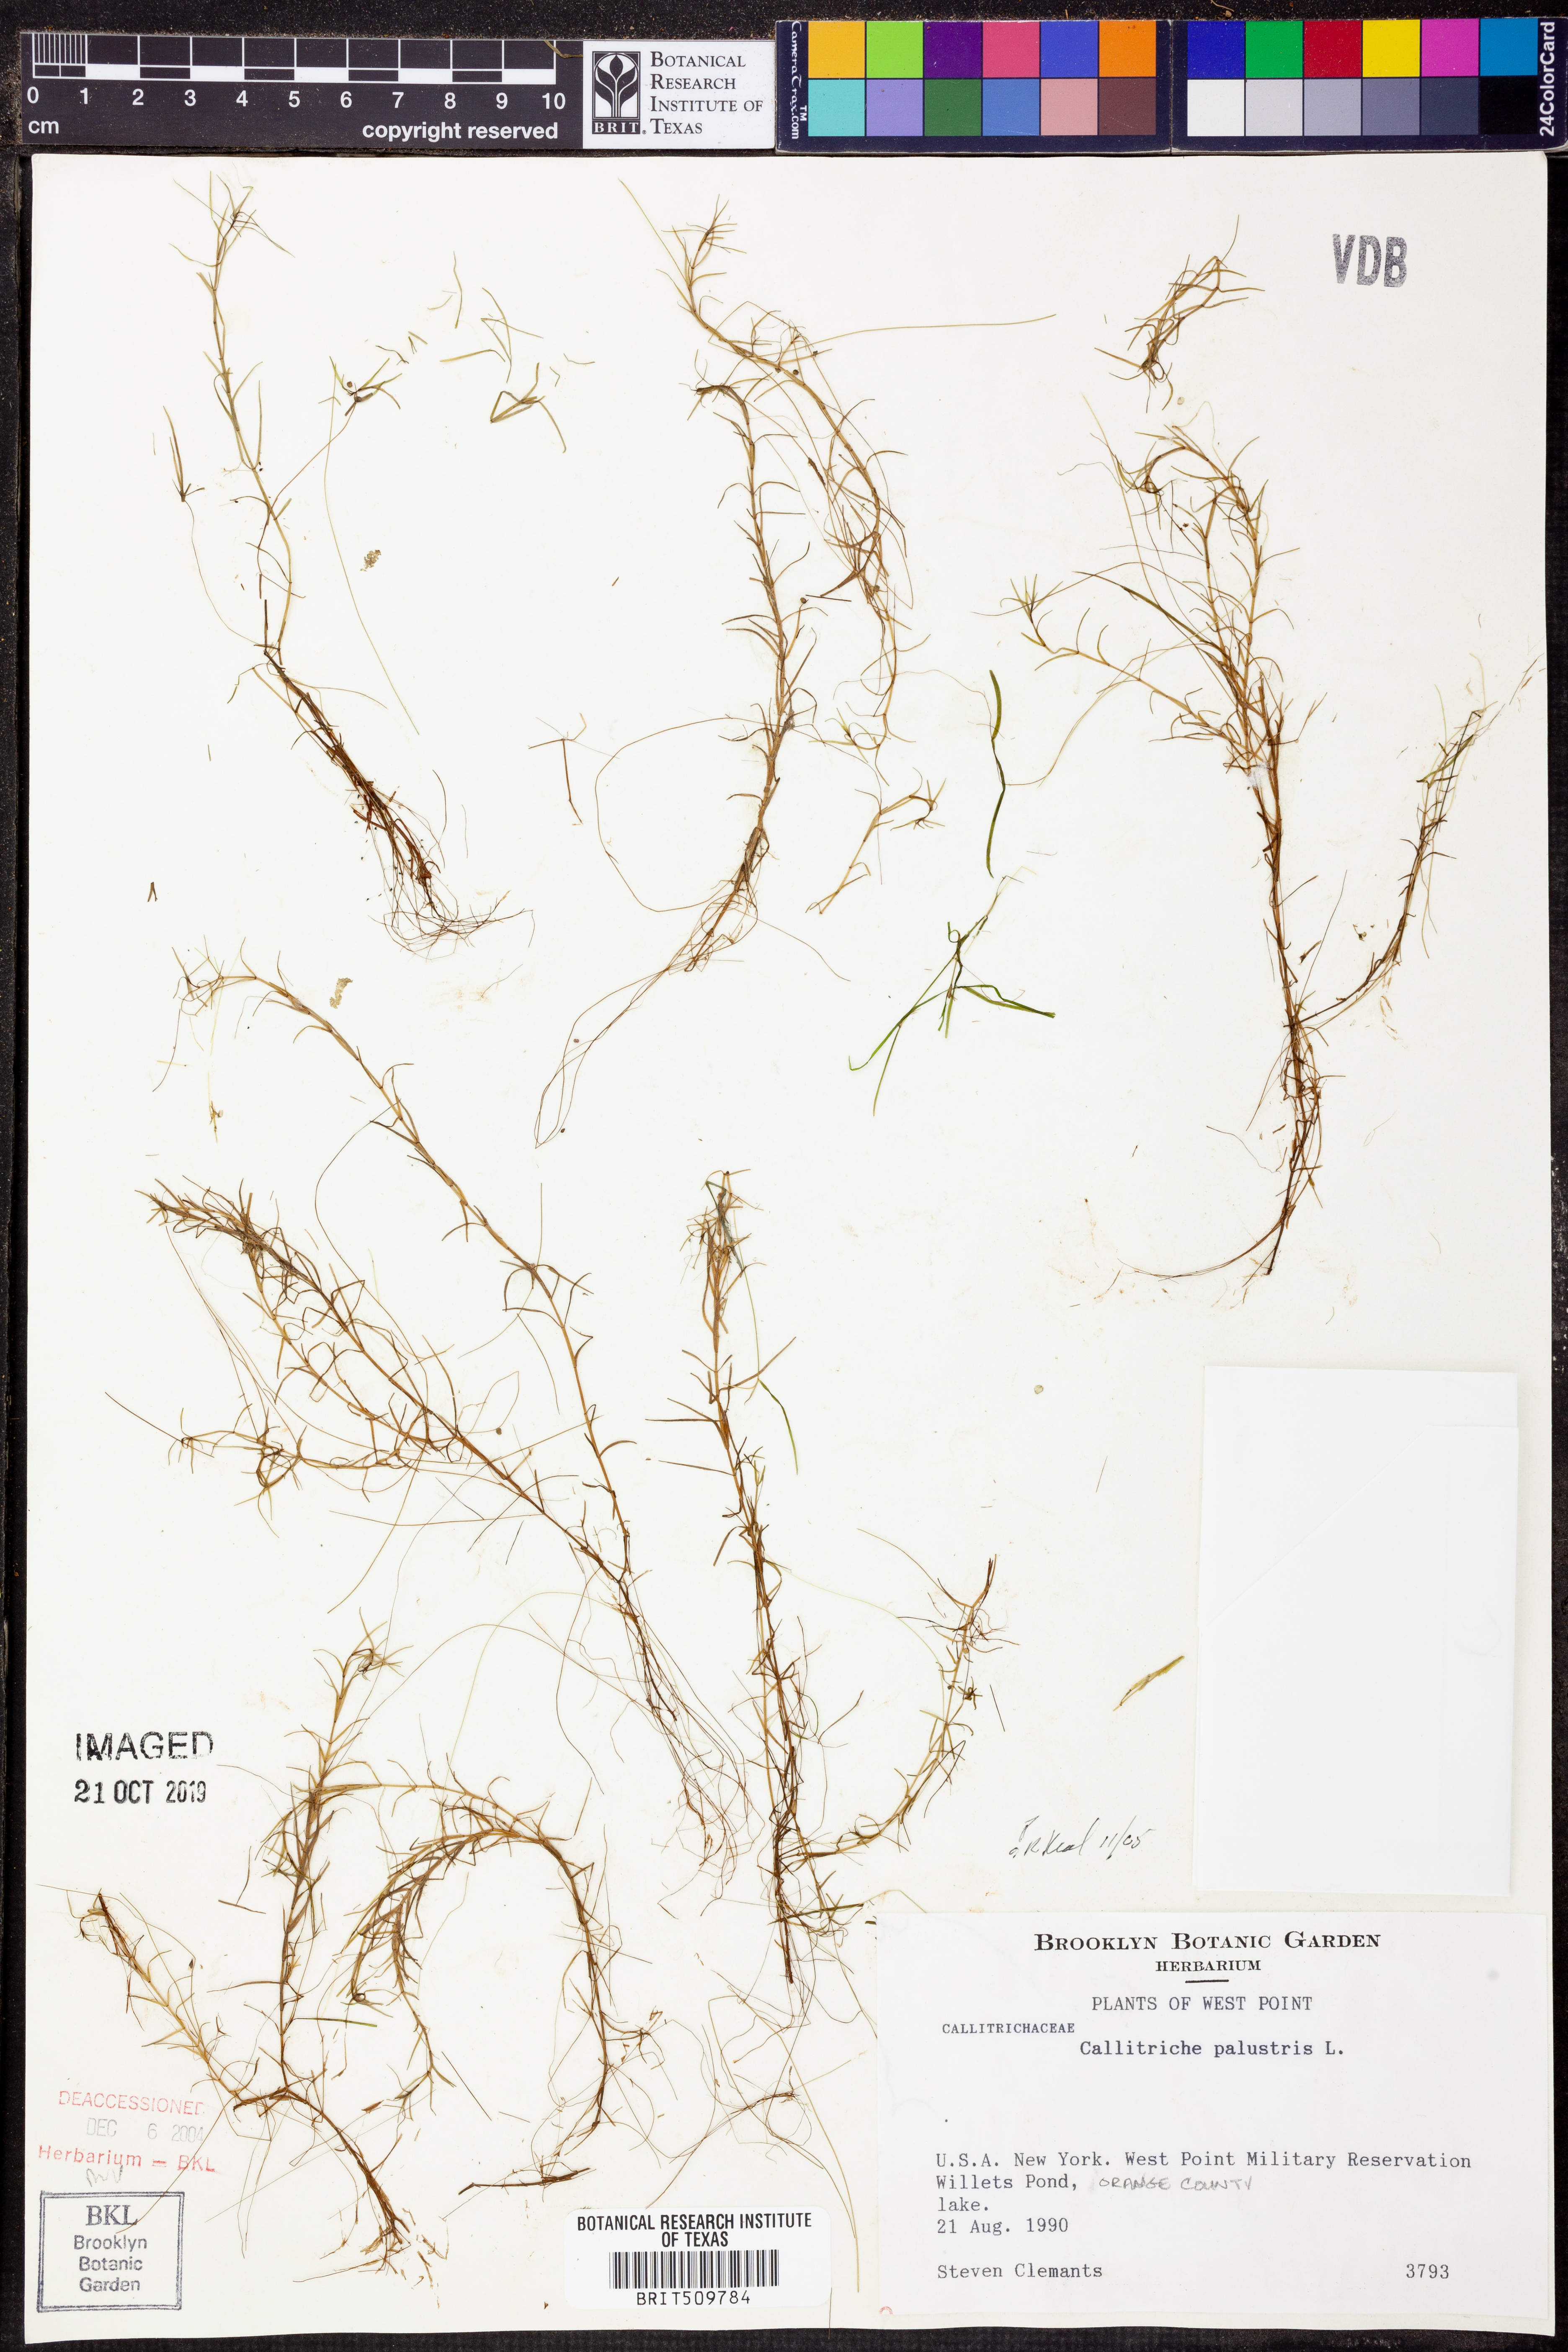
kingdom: Plantae
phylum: Tracheophyta
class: Magnoliopsida
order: Lamiales
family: Plantaginaceae
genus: Callitriche
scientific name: Callitriche palustris
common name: Spring water-starwort
